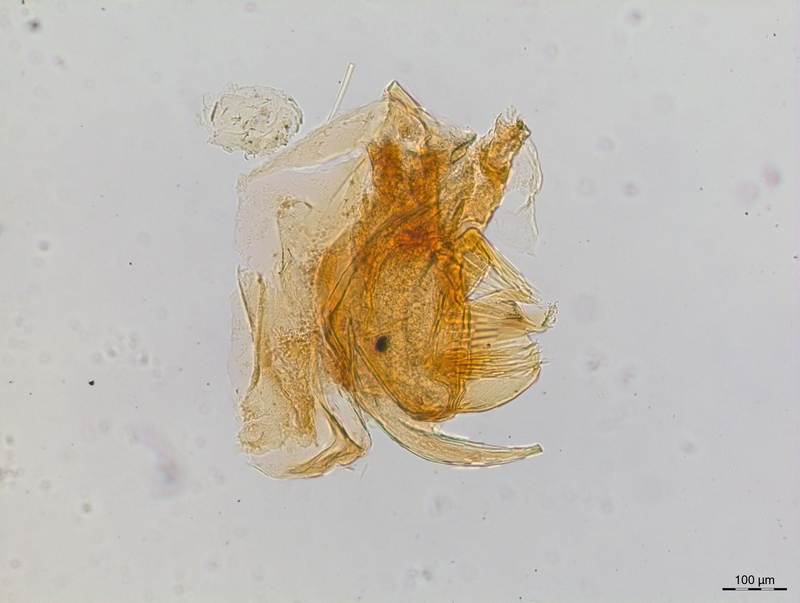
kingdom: Animalia
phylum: Arthropoda
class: Diplopoda
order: Chordeumatida
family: Craspedosomatidae
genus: Craspedosoma
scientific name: Craspedosoma transsilvanicum
